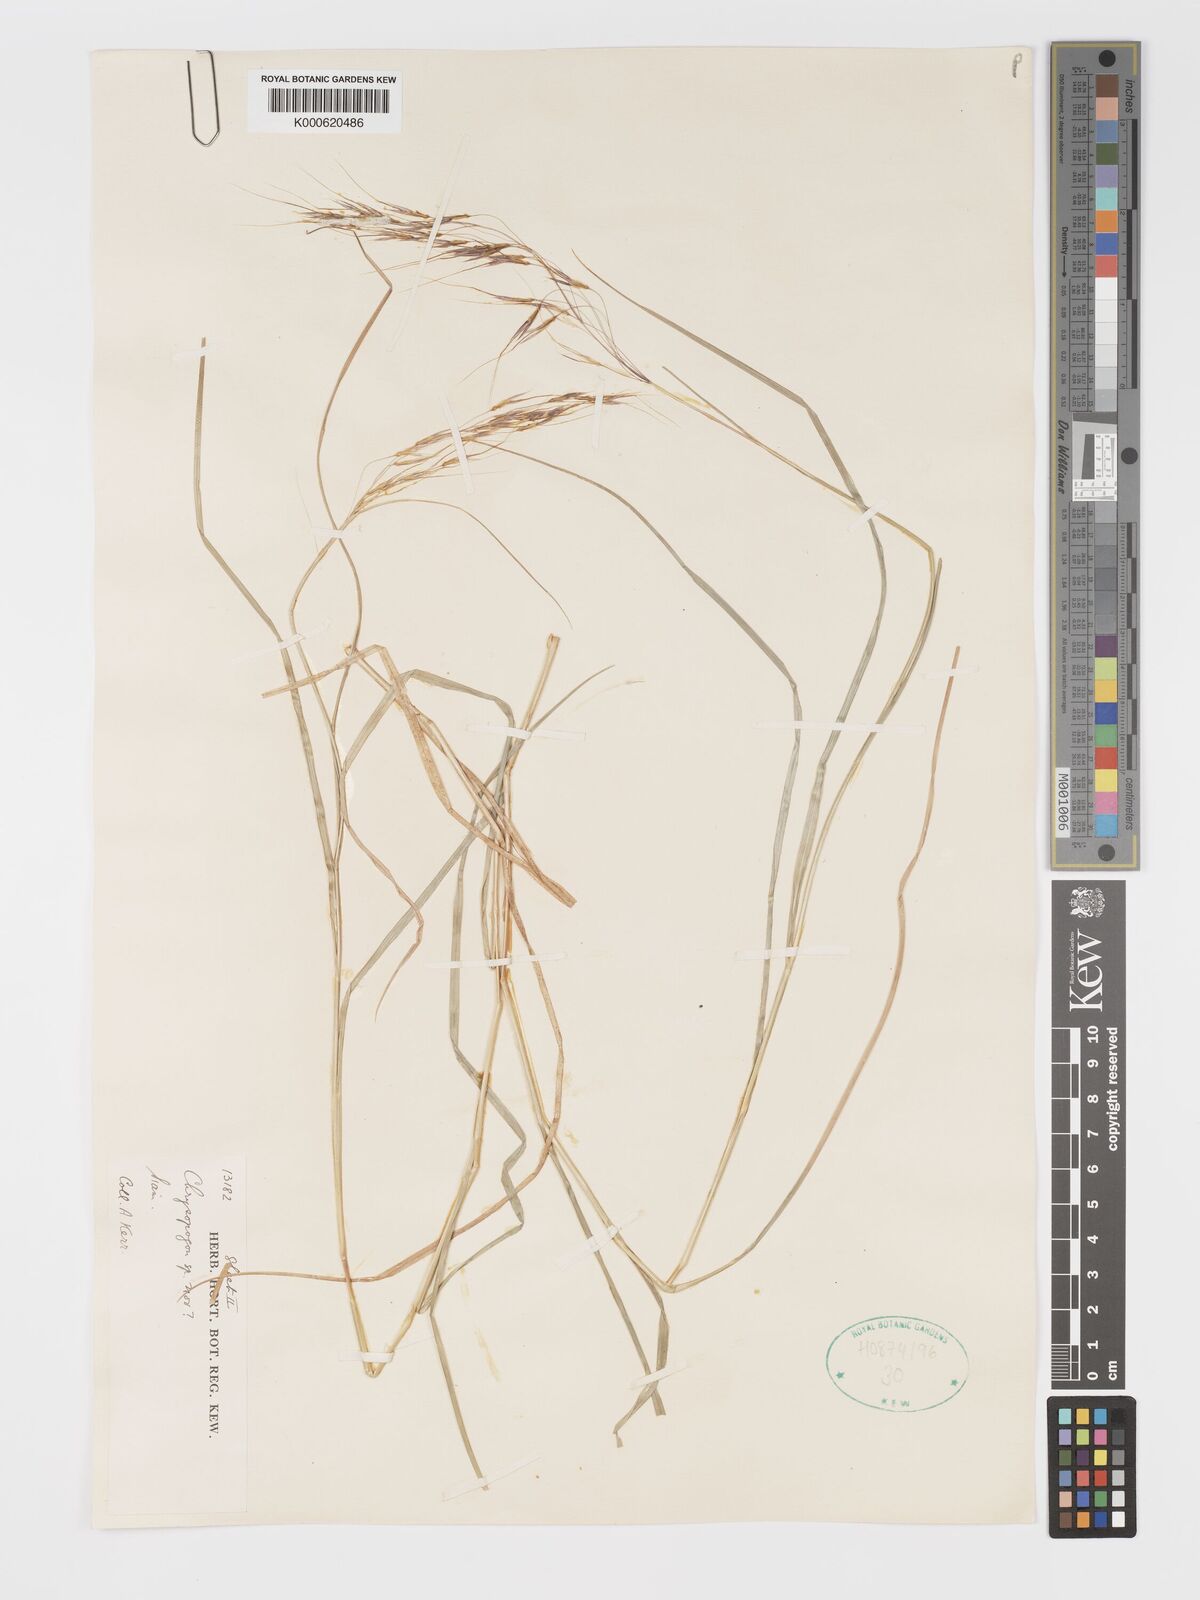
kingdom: Plantae
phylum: Tracheophyta
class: Liliopsida
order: Poales
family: Poaceae
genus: Chrysopogon
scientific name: Chrysopogon orientalis
